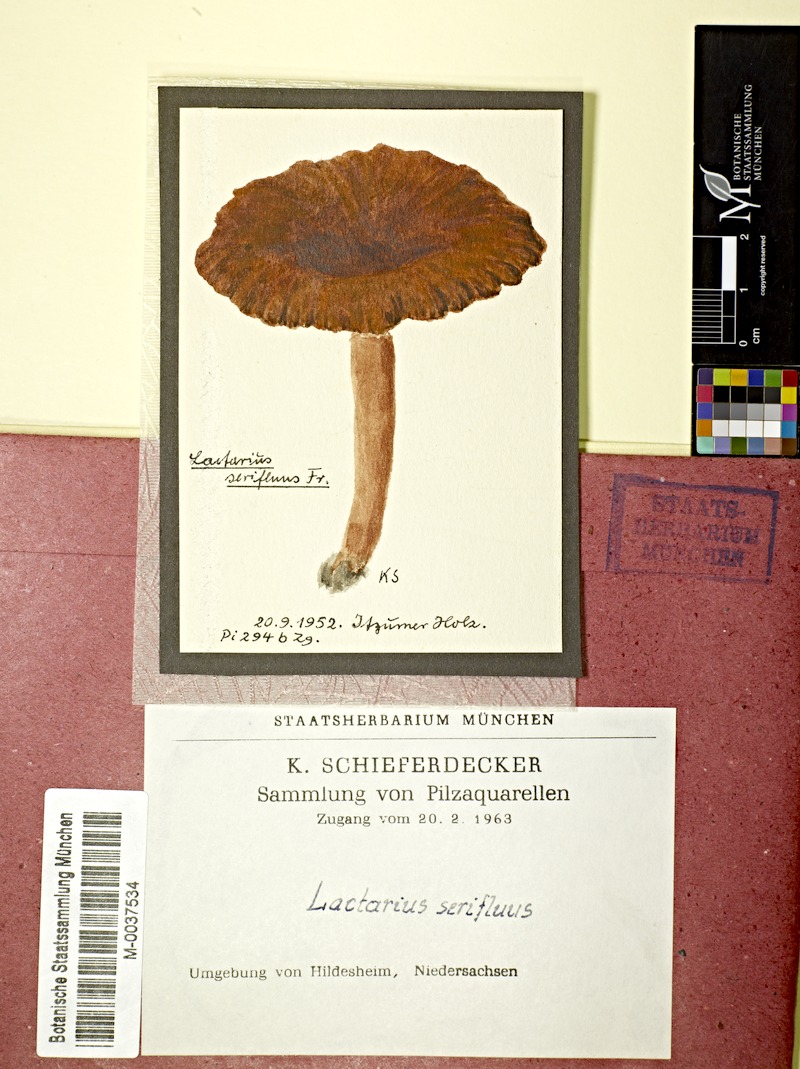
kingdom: Fungi
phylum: Basidiomycota
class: Agaricomycetes
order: Russulales
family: Russulaceae
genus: Lactarius
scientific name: Lactarius serifluus
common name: Watery milk-cap
